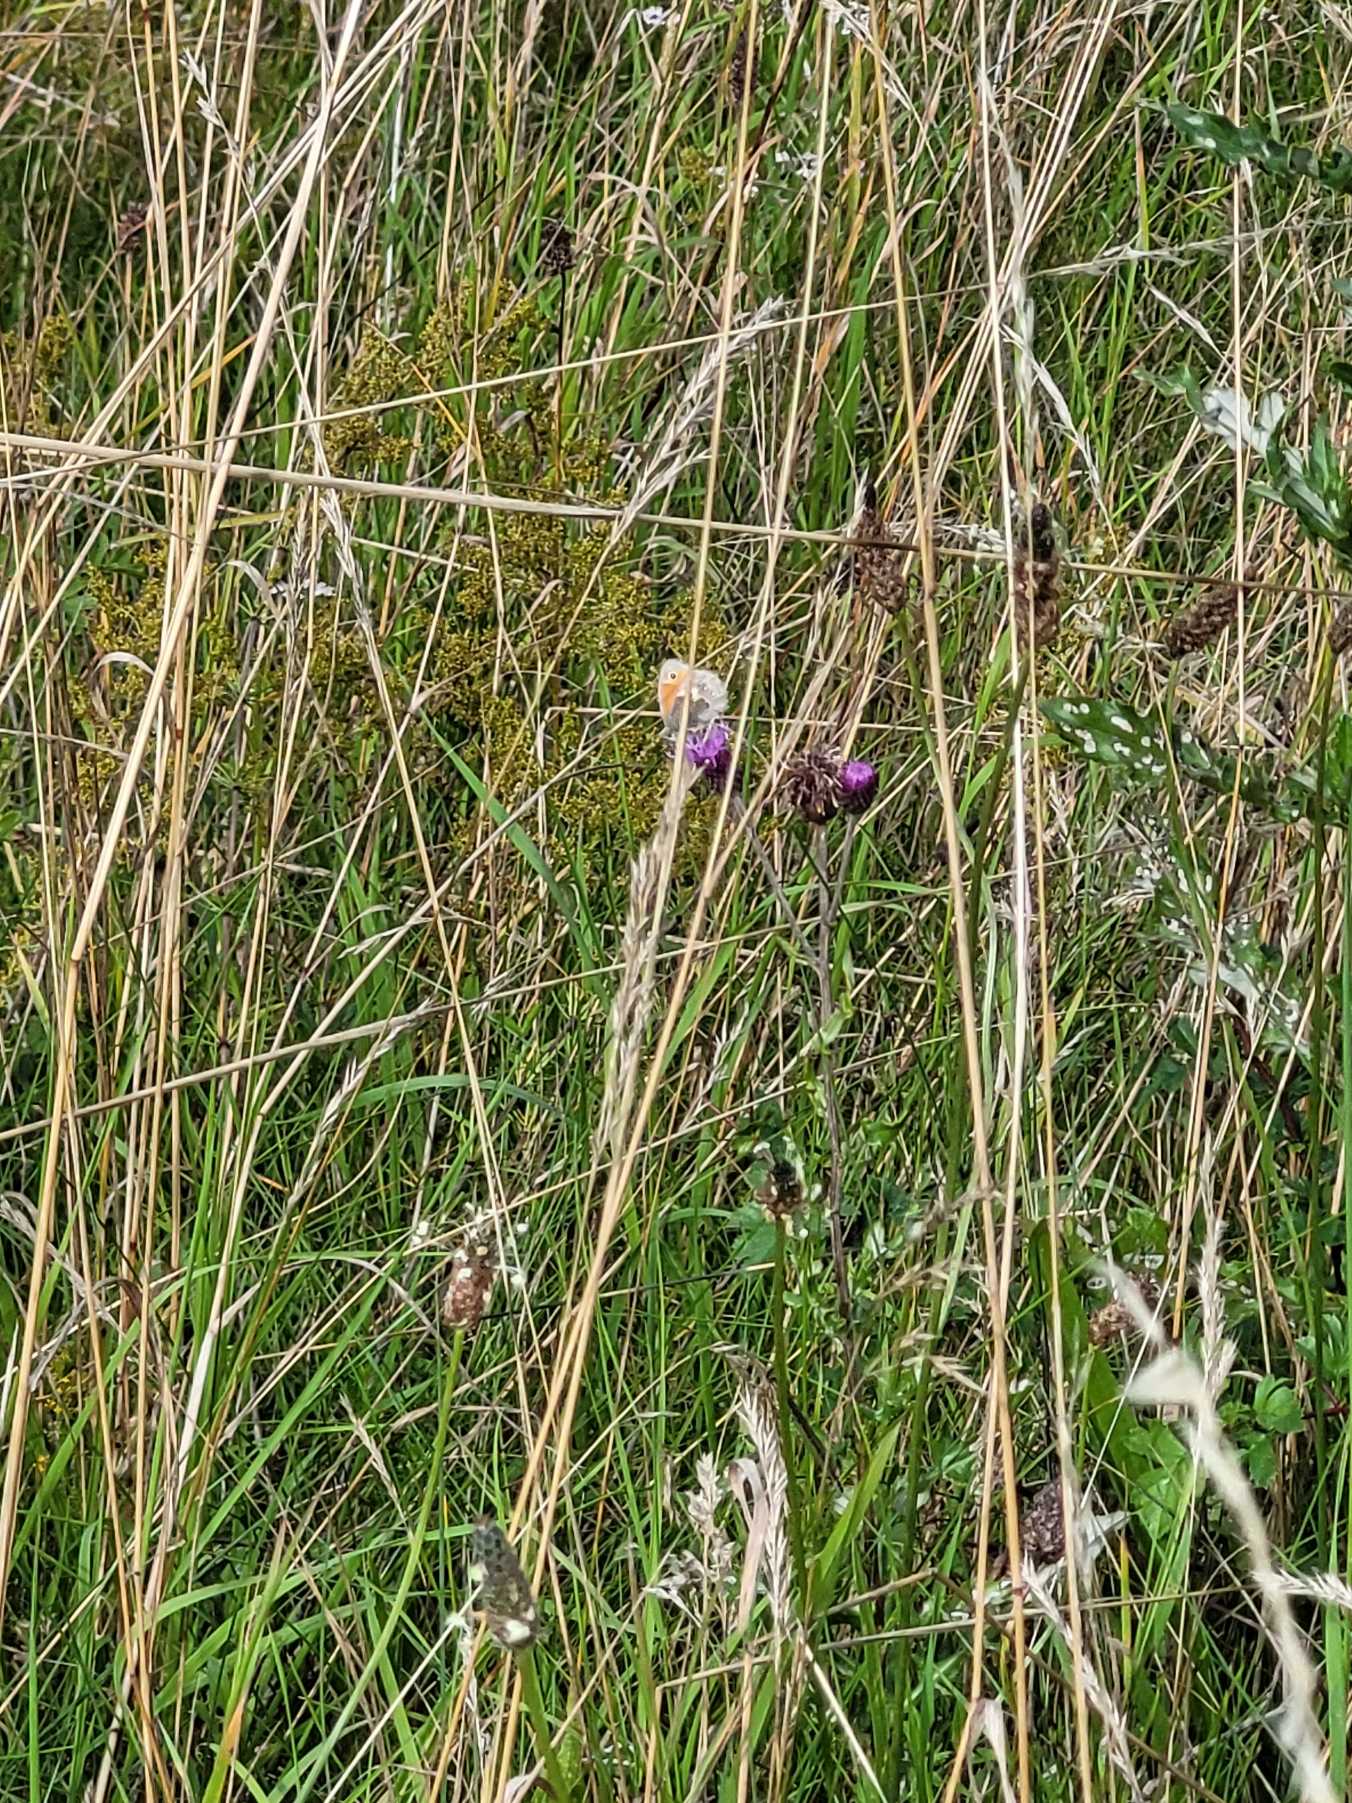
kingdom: Animalia
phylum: Arthropoda
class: Insecta
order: Lepidoptera
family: Nymphalidae
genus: Coenonympha
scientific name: Coenonympha pamphilus
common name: Okkergul randøje
